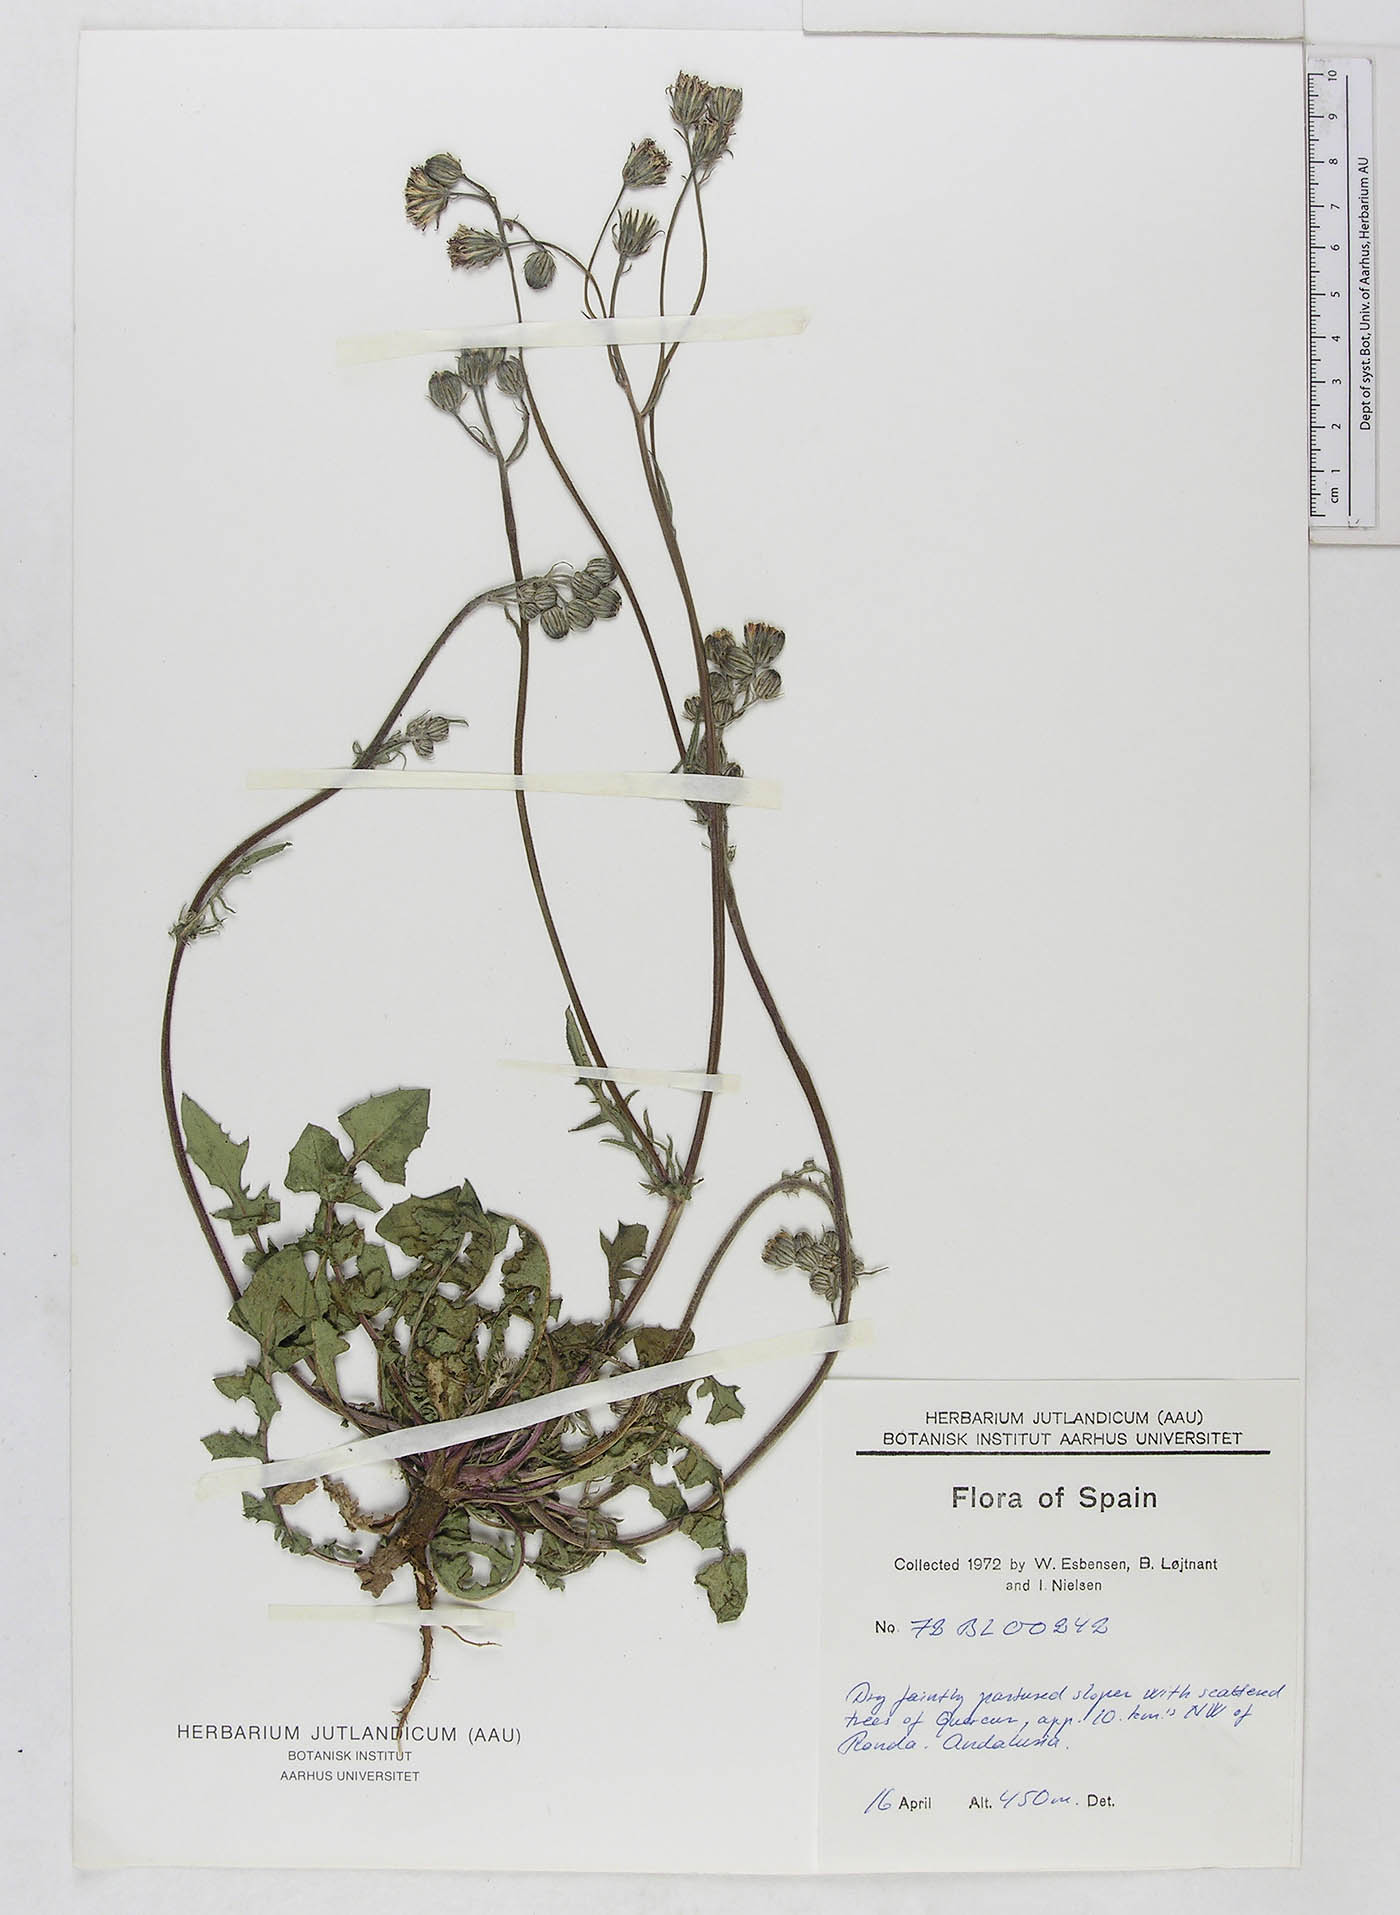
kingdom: Plantae
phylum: Tracheophyta
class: Magnoliopsida
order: Asterales
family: Asteraceae
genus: Crepis
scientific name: Crepis
